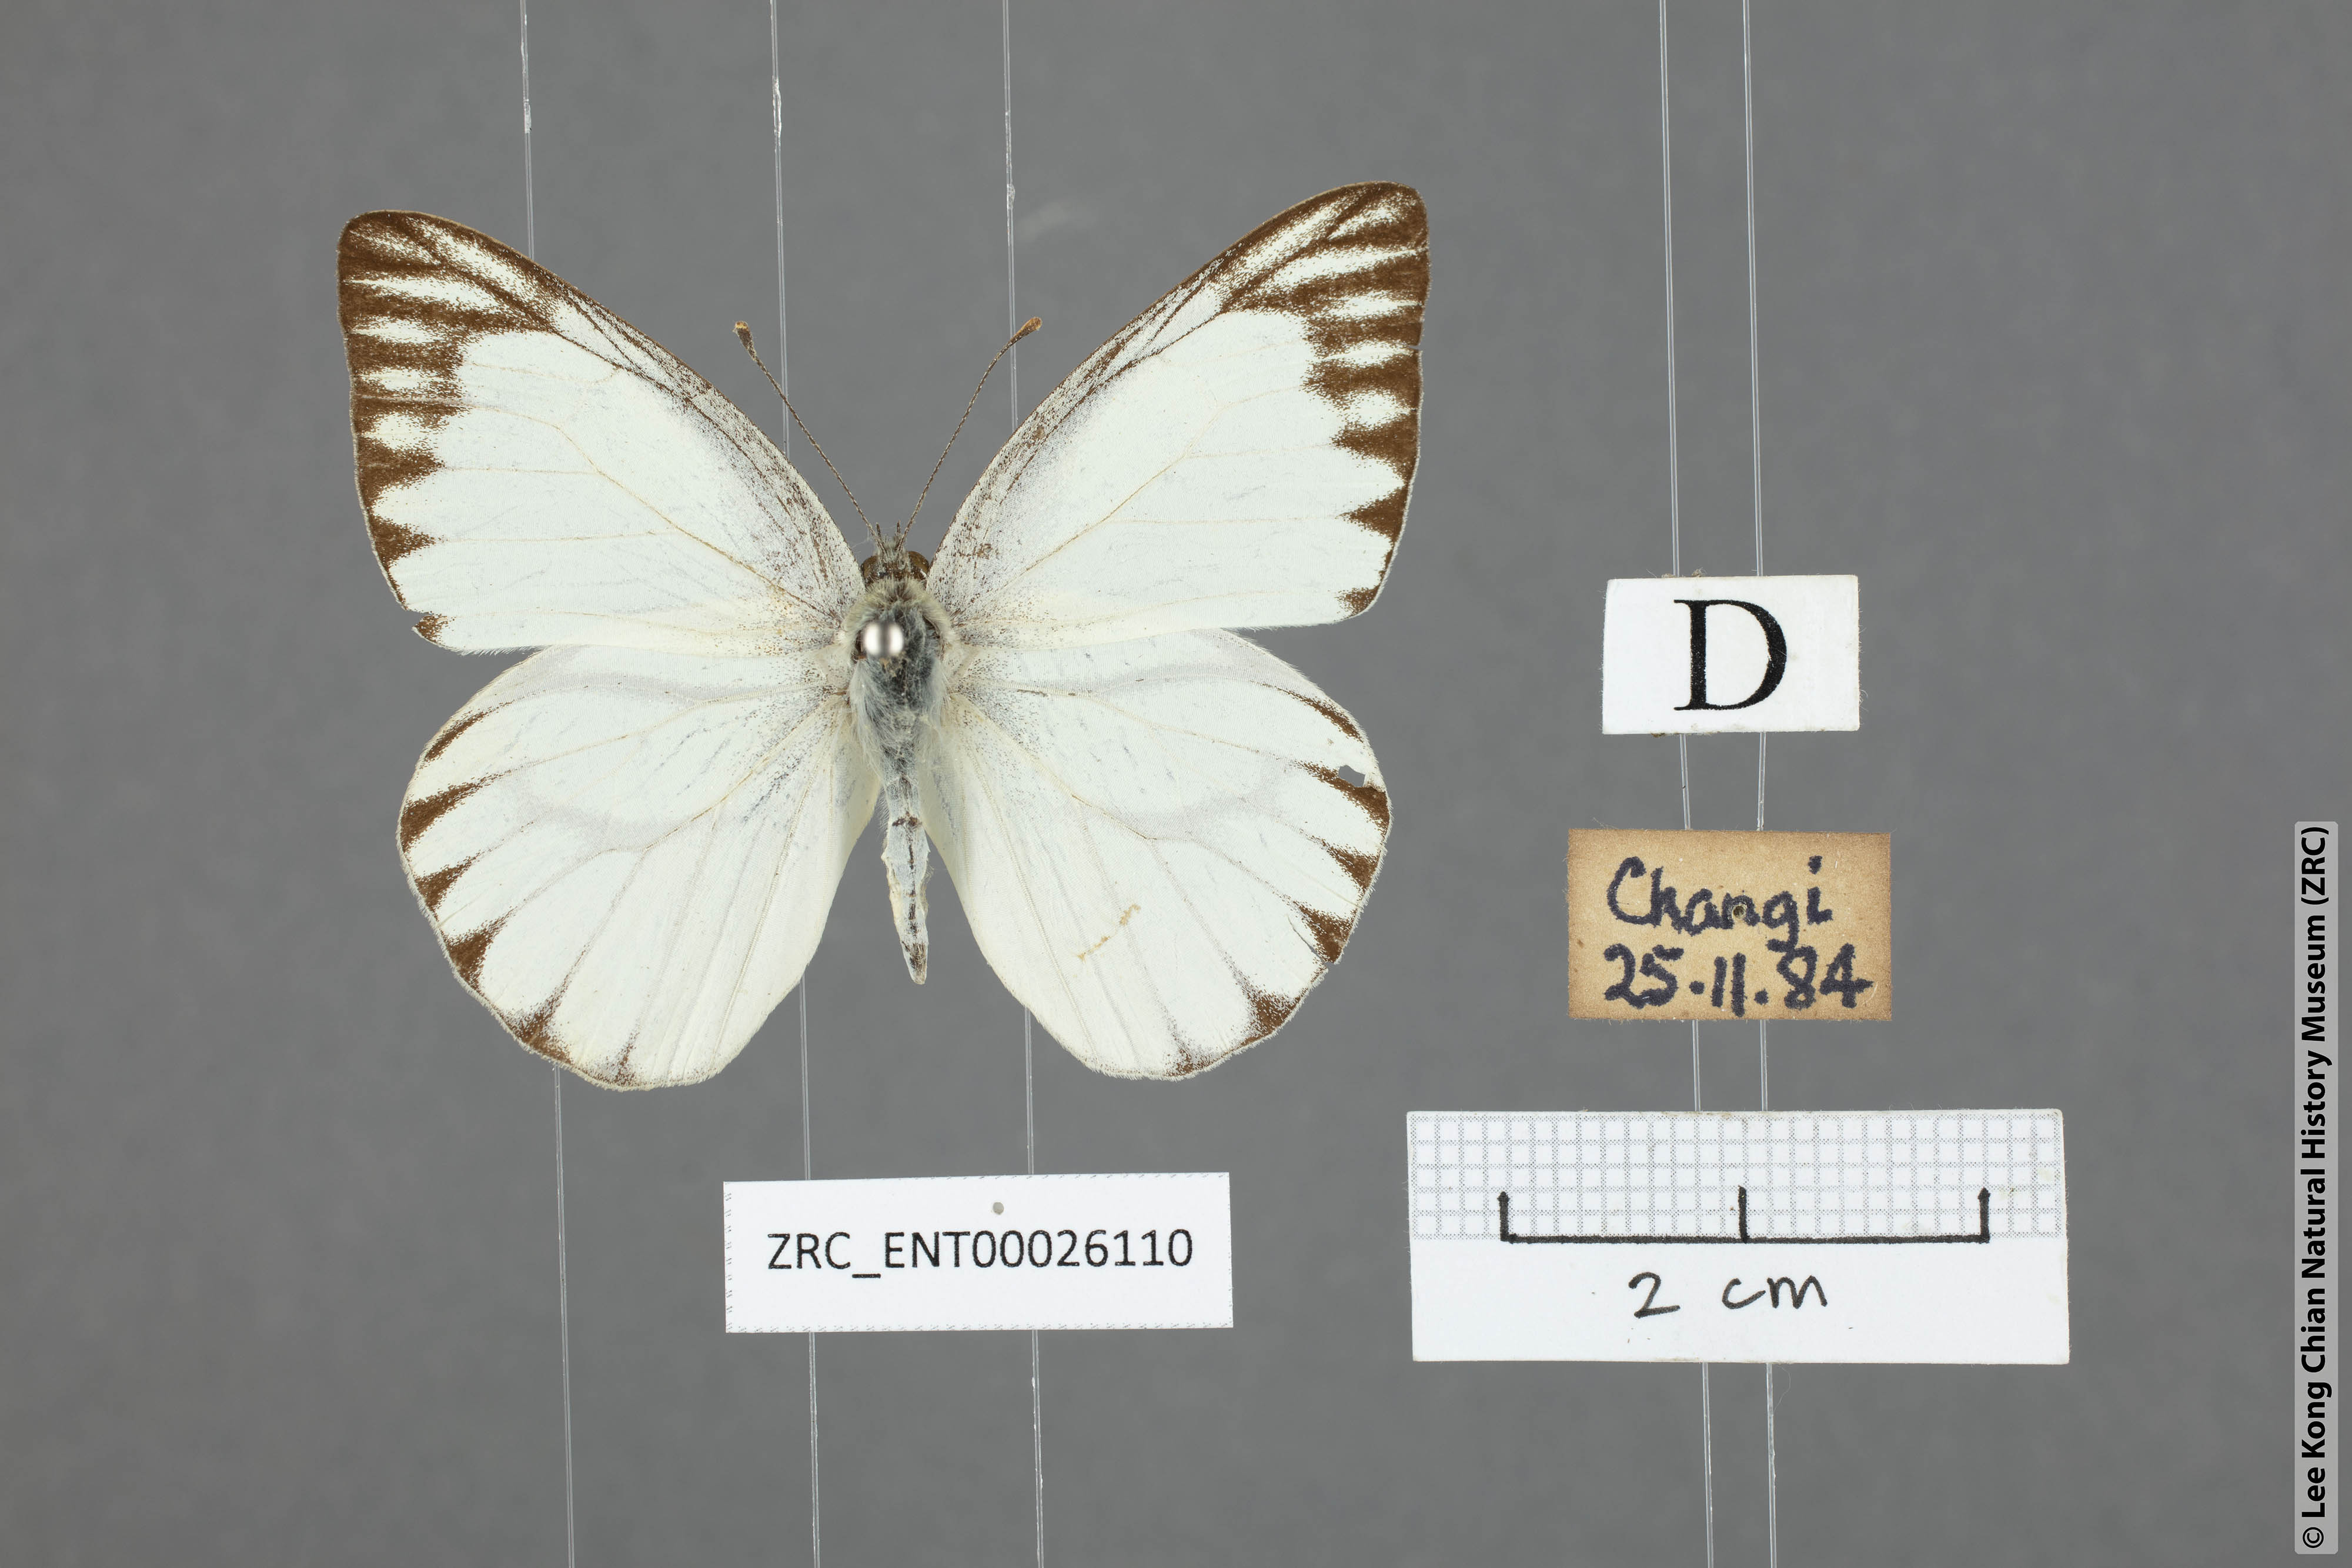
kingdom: Animalia
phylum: Arthropoda
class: Insecta
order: Lepidoptera
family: Pieridae
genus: Appias
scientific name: Appias libythea
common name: Striped albatross
